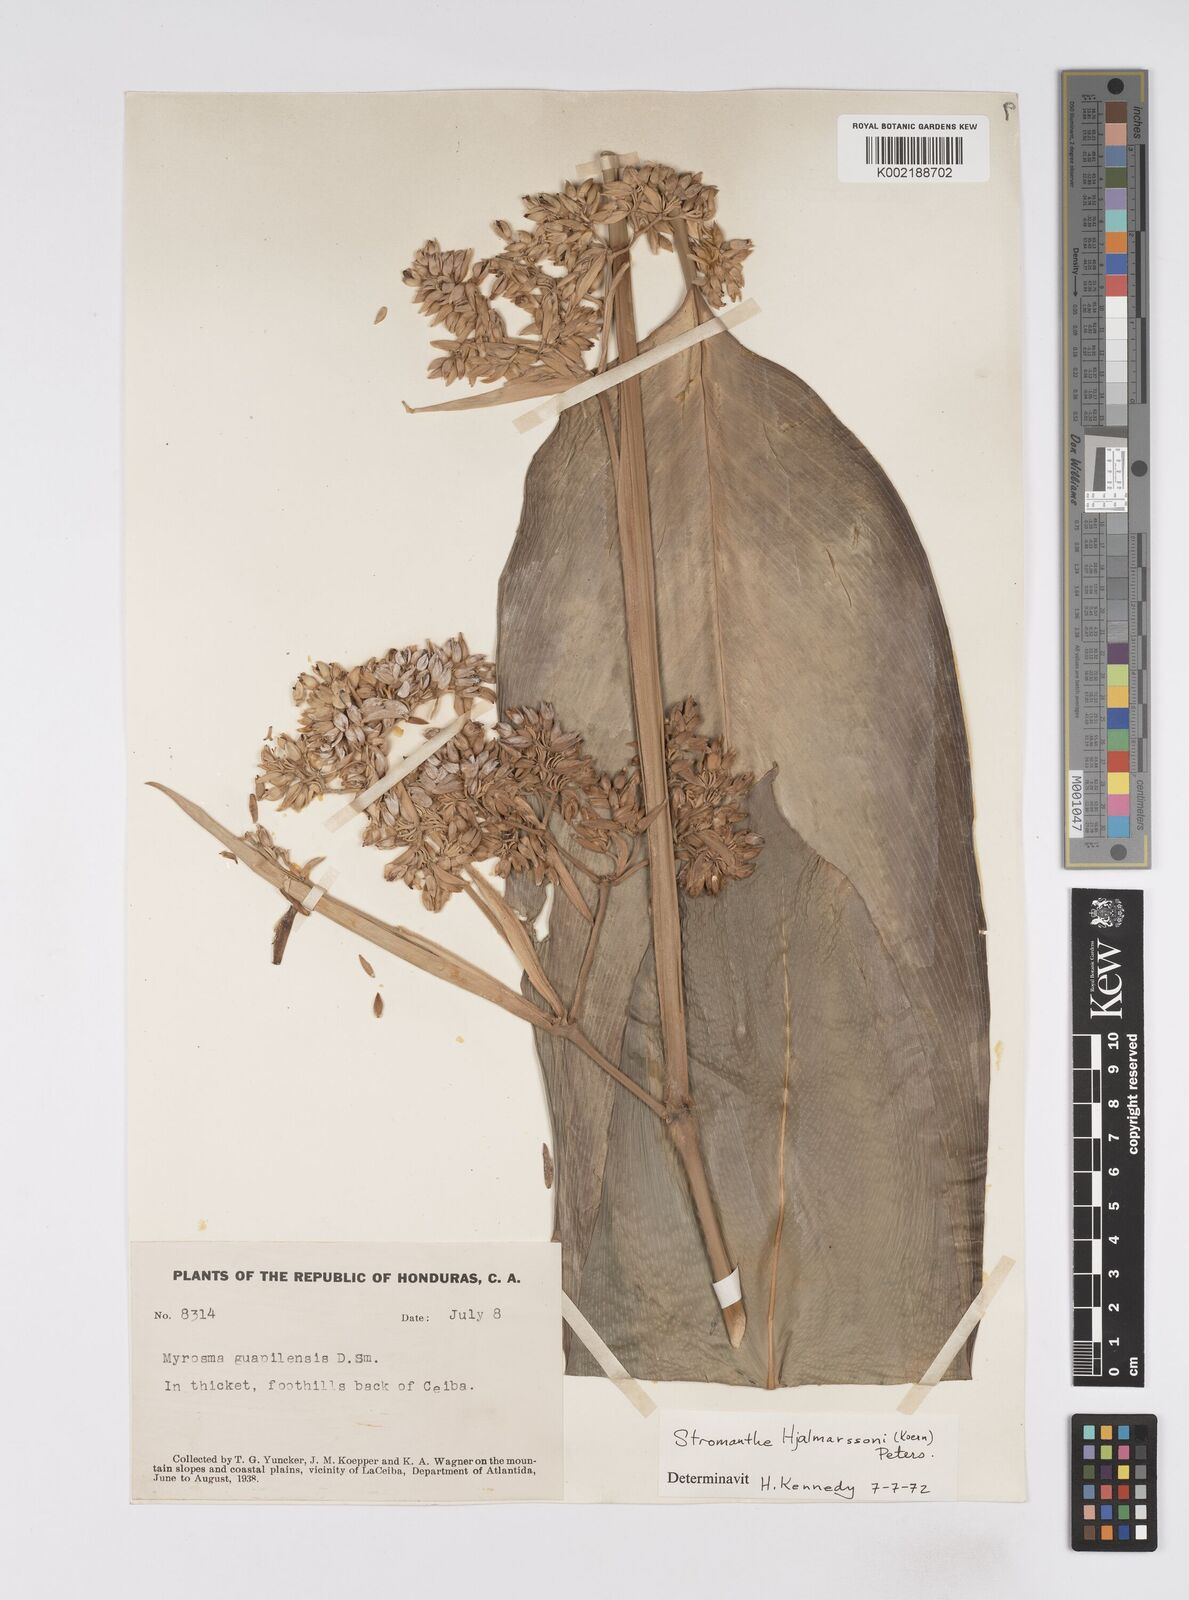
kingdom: Plantae
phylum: Tracheophyta
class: Liliopsida
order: Zingiberales
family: Marantaceae
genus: Stromanthe
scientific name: Stromanthe hjalmarssonii
